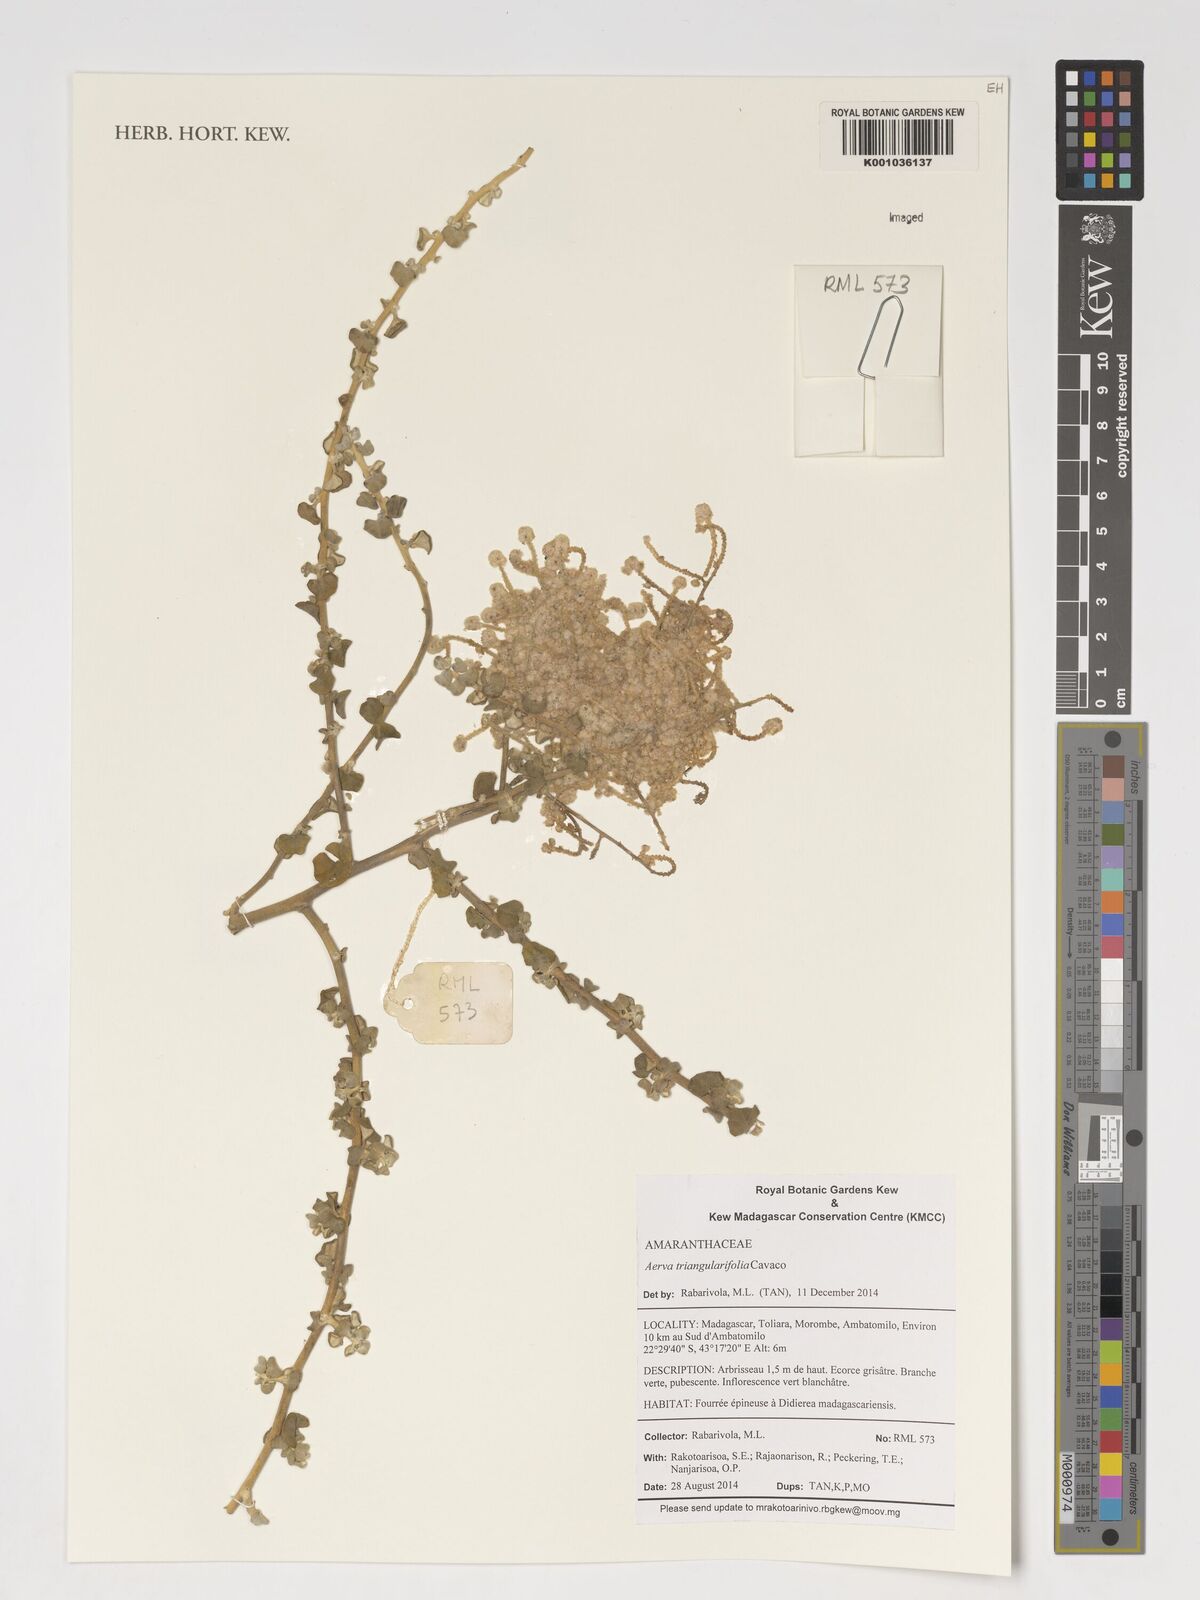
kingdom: Plantae
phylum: Tracheophyta
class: Magnoliopsida
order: Caryophyllales
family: Amaranthaceae
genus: Ouret
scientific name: Ouret triangularifolia
